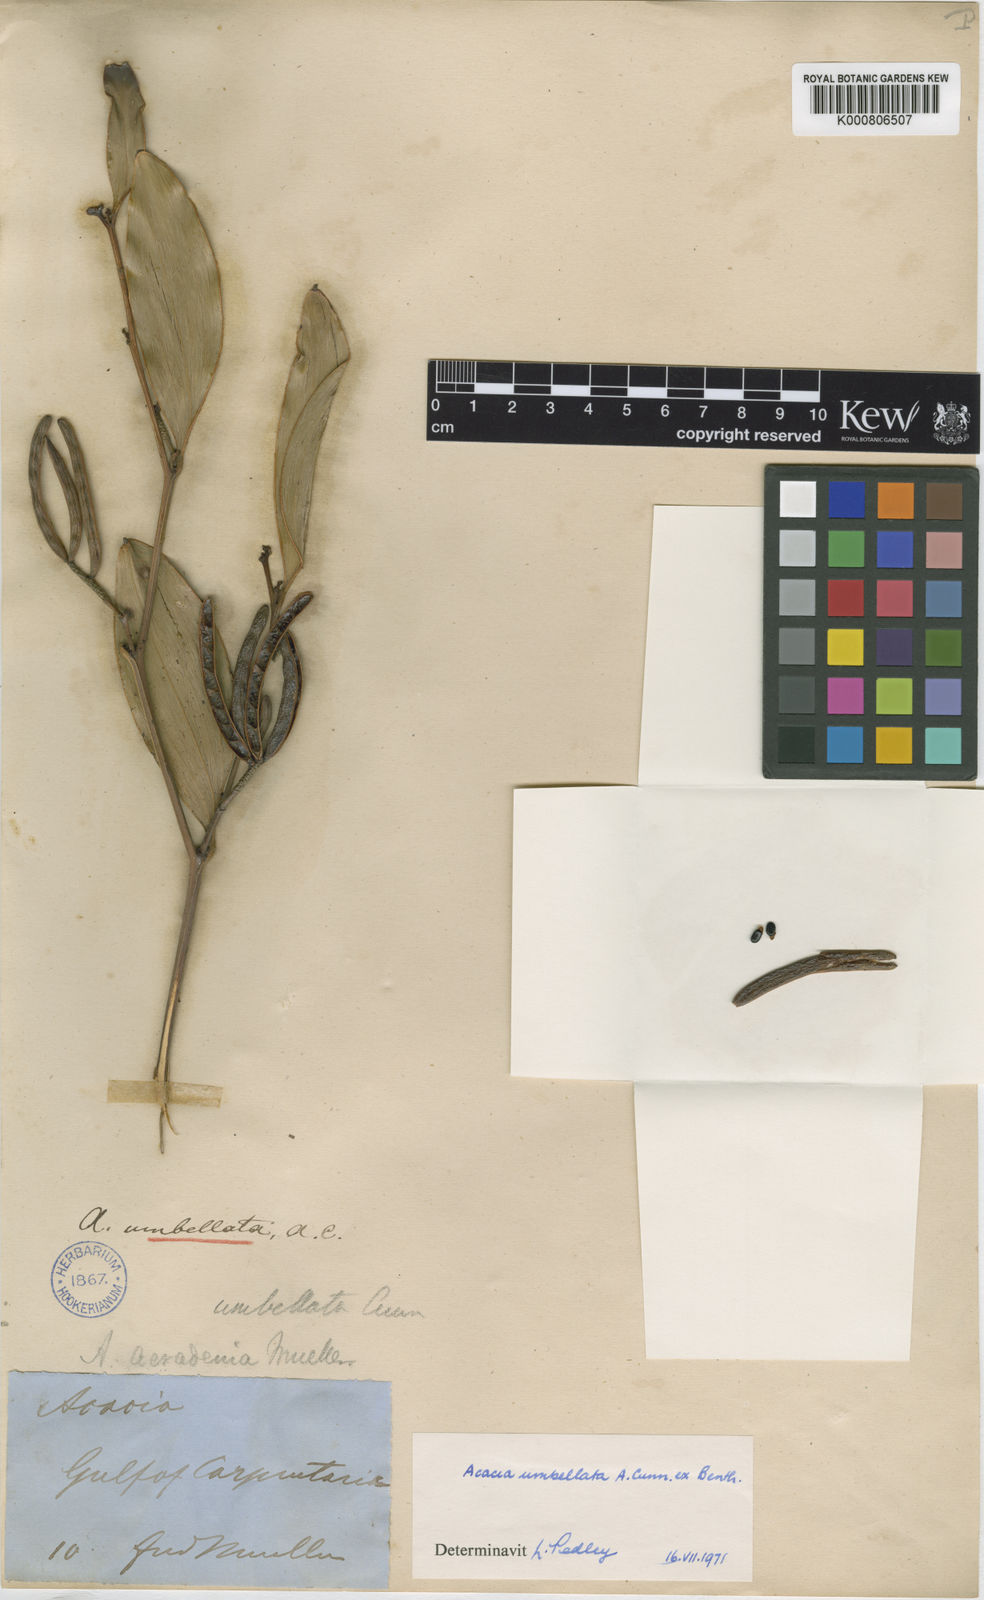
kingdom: Plantae
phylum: Tracheophyta
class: Magnoliopsida
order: Fabales
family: Fabaceae
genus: Acacia
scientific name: Acacia umbellata
